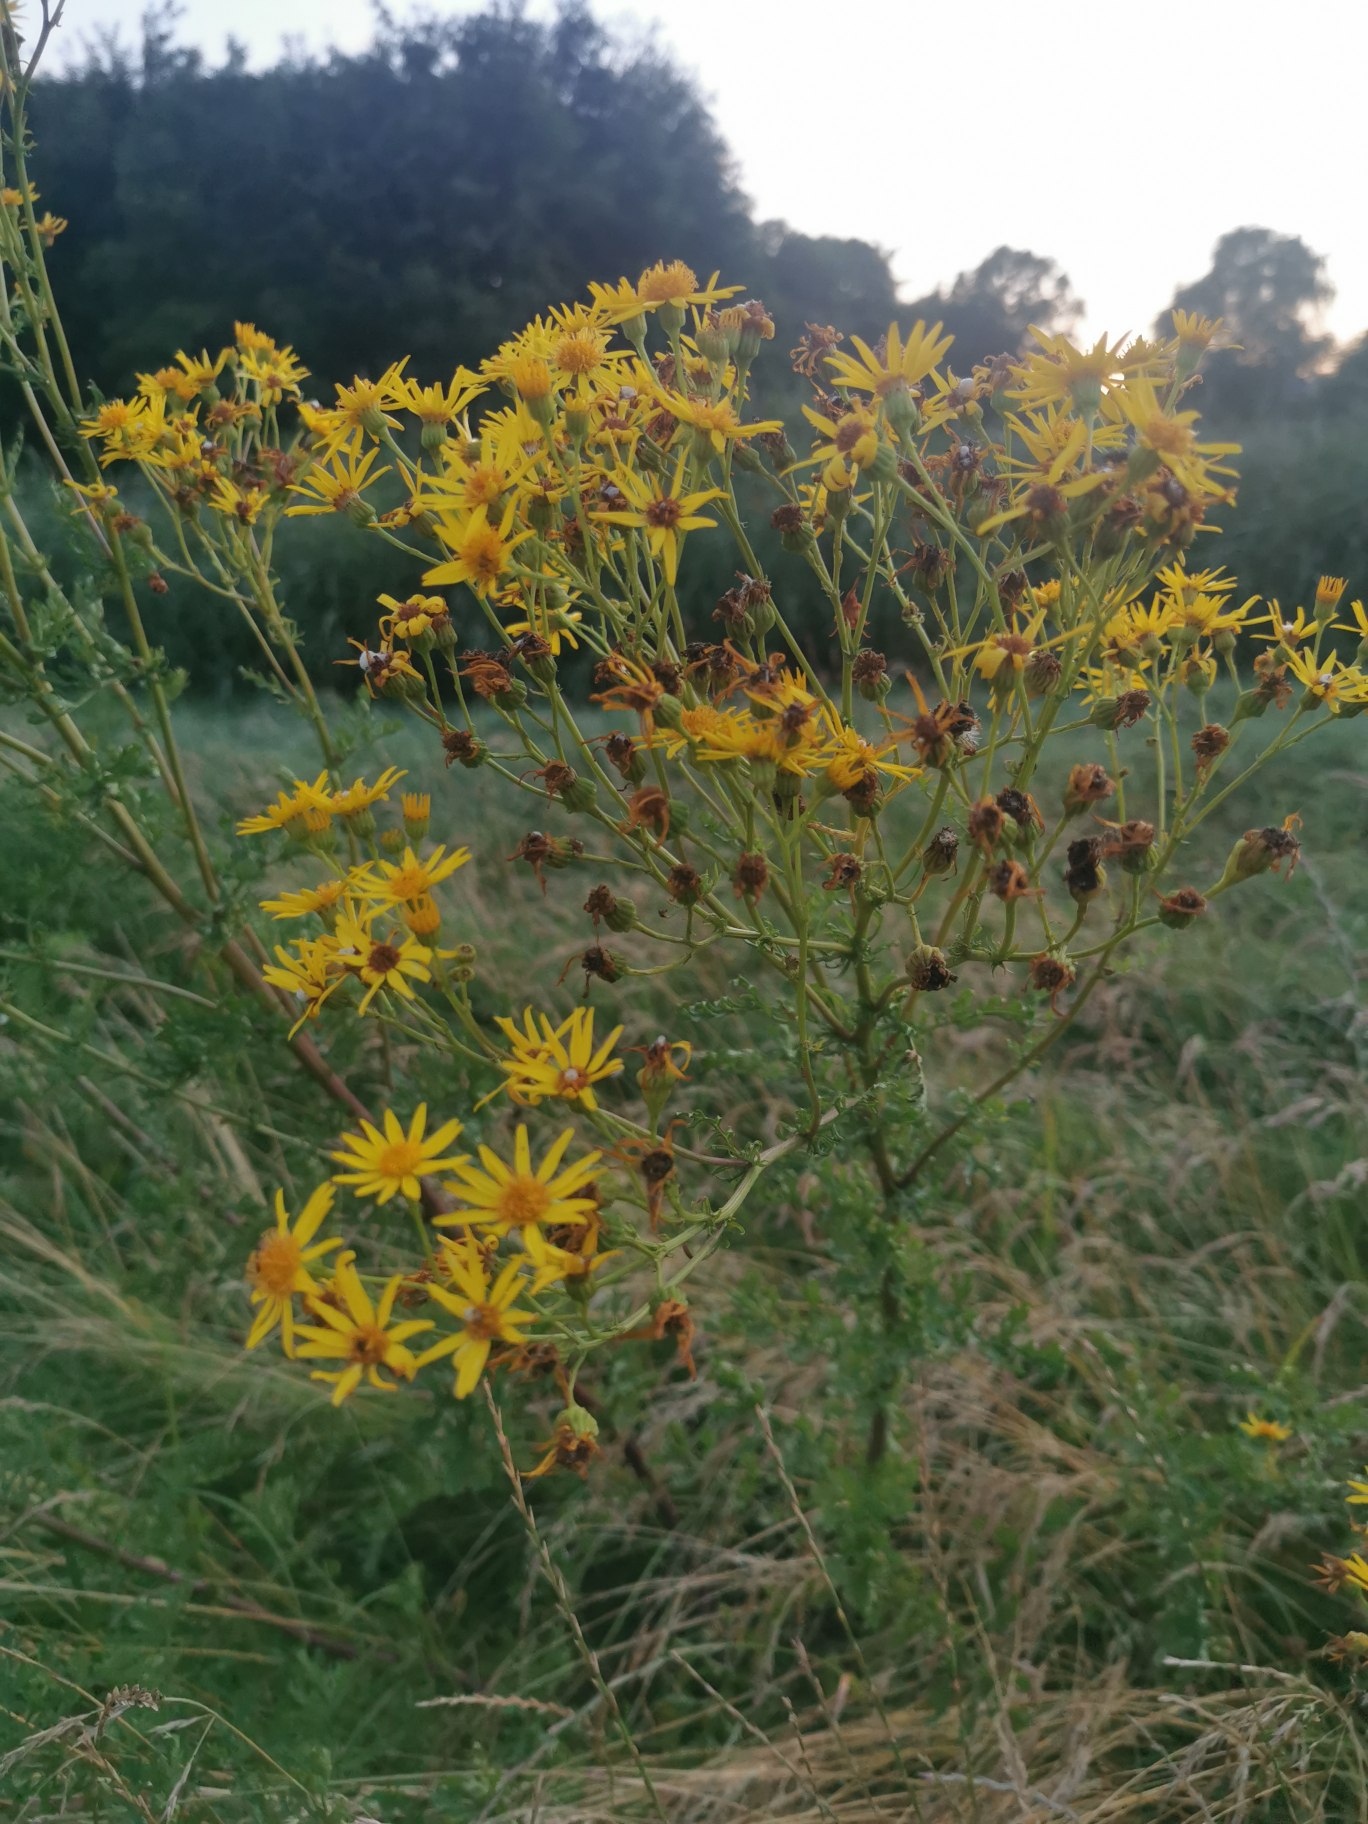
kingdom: Plantae
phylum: Tracheophyta
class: Magnoliopsida
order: Asterales
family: Asteraceae
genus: Jacobaea
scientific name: Jacobaea vulgaris
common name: Eng-brandbæger
